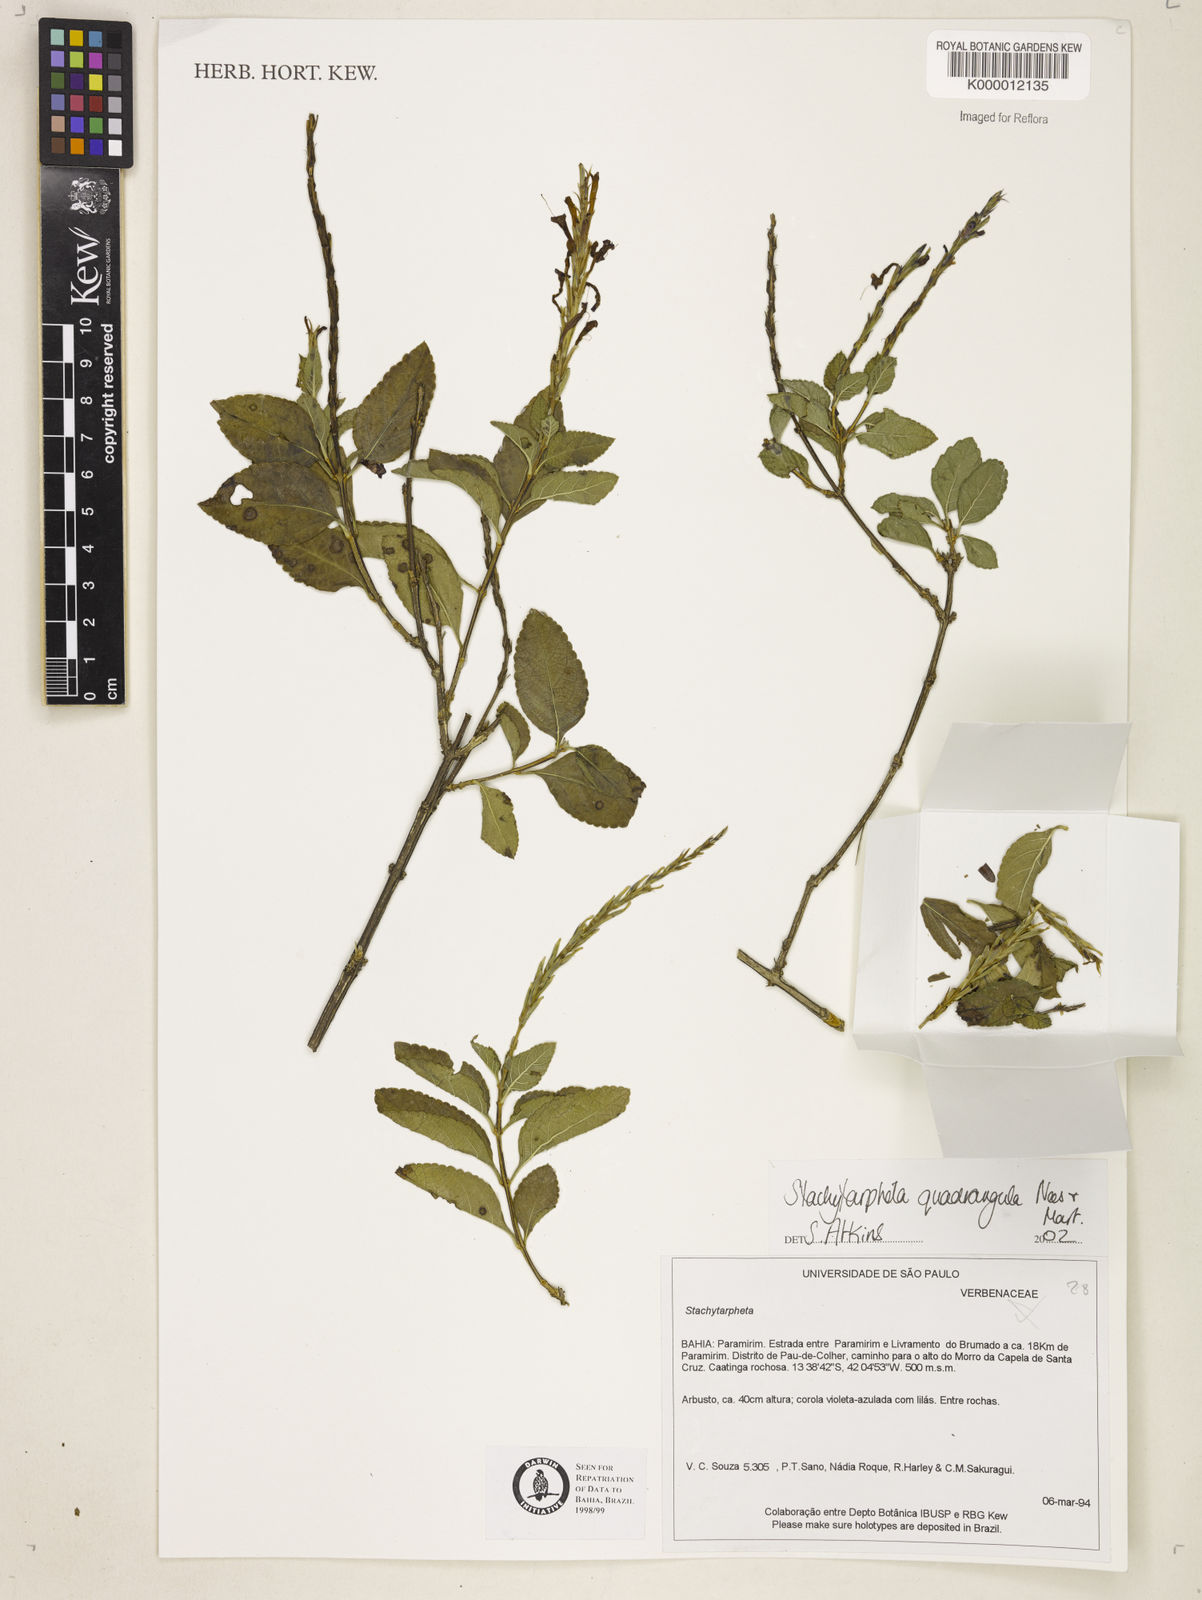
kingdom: Plantae
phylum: Tracheophyta
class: Magnoliopsida
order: Lamiales
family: Verbenaceae
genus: Stachytarpheta
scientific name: Stachytarpheta
